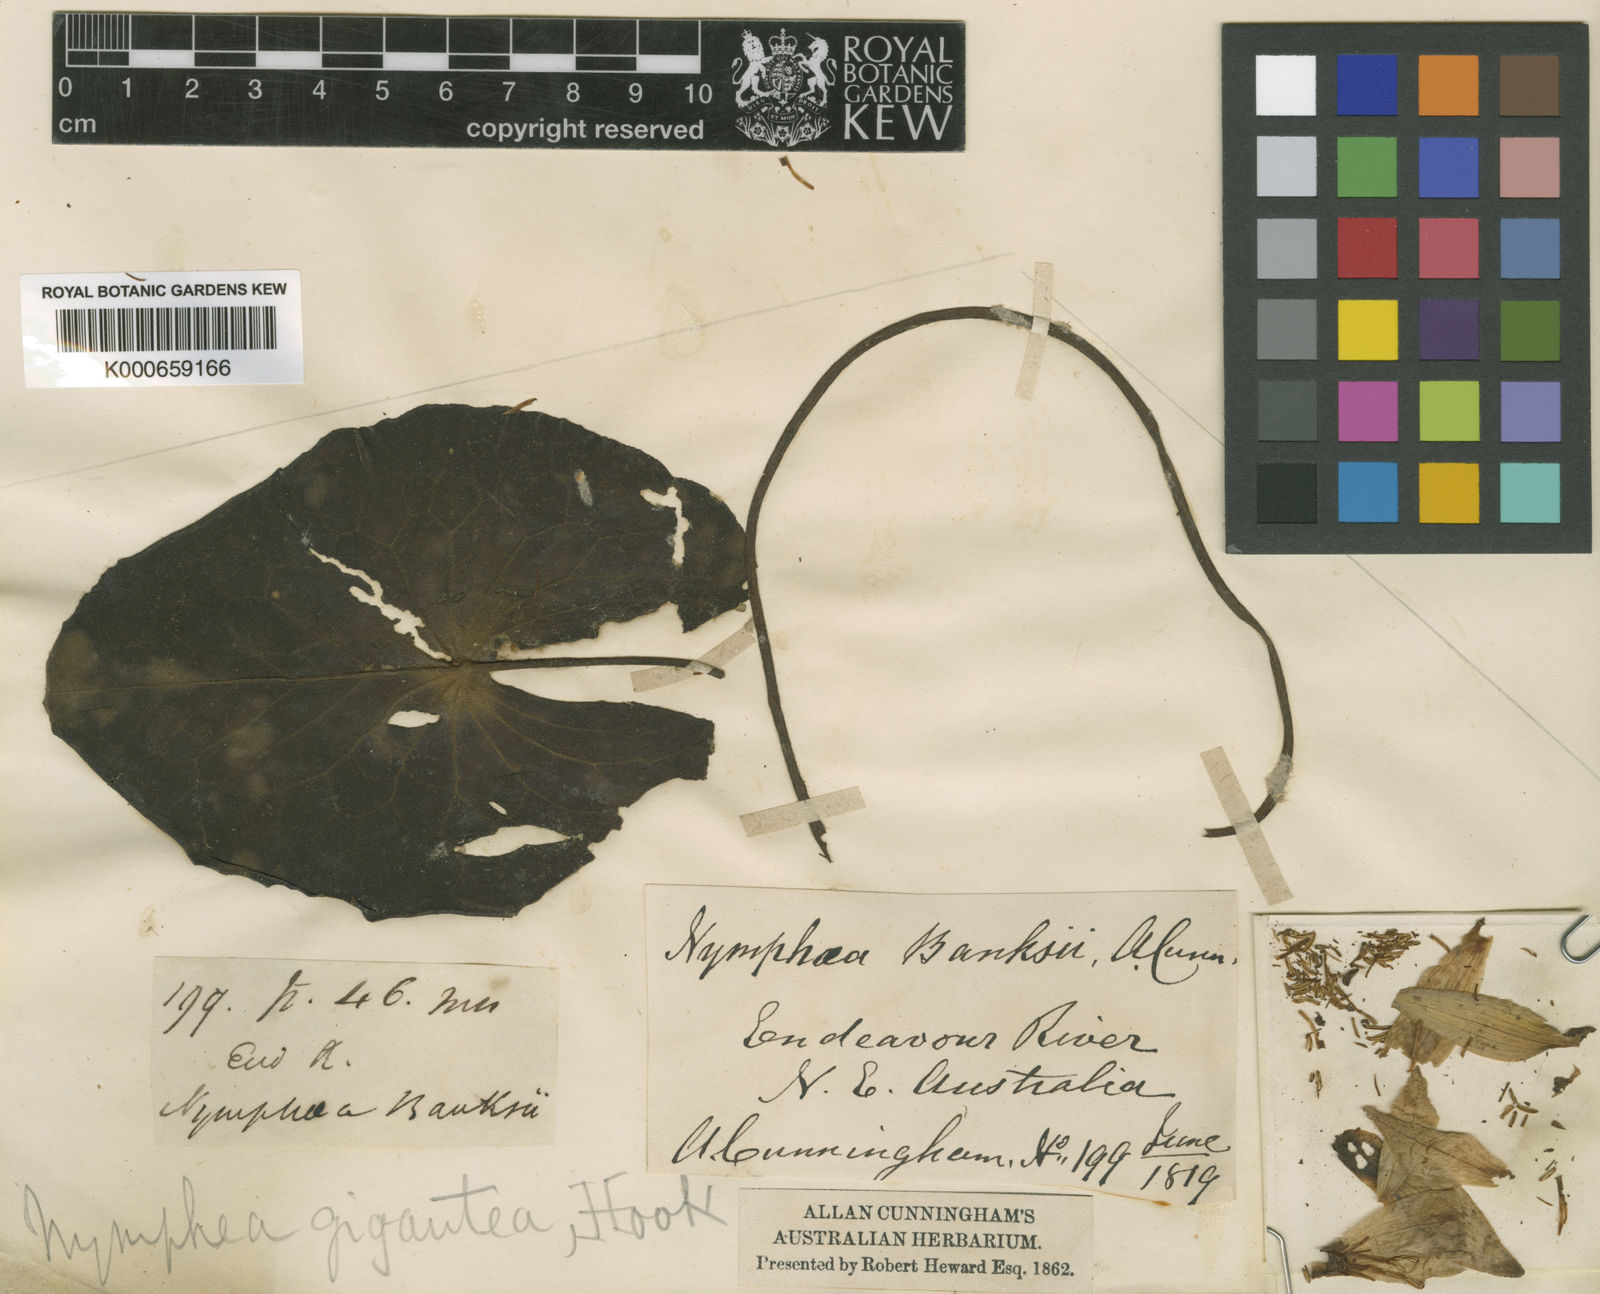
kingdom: Plantae
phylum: Tracheophyta
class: Magnoliopsida
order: Nymphaeales
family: Nymphaeaceae
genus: Nymphaea
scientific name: Nymphaea violacea
